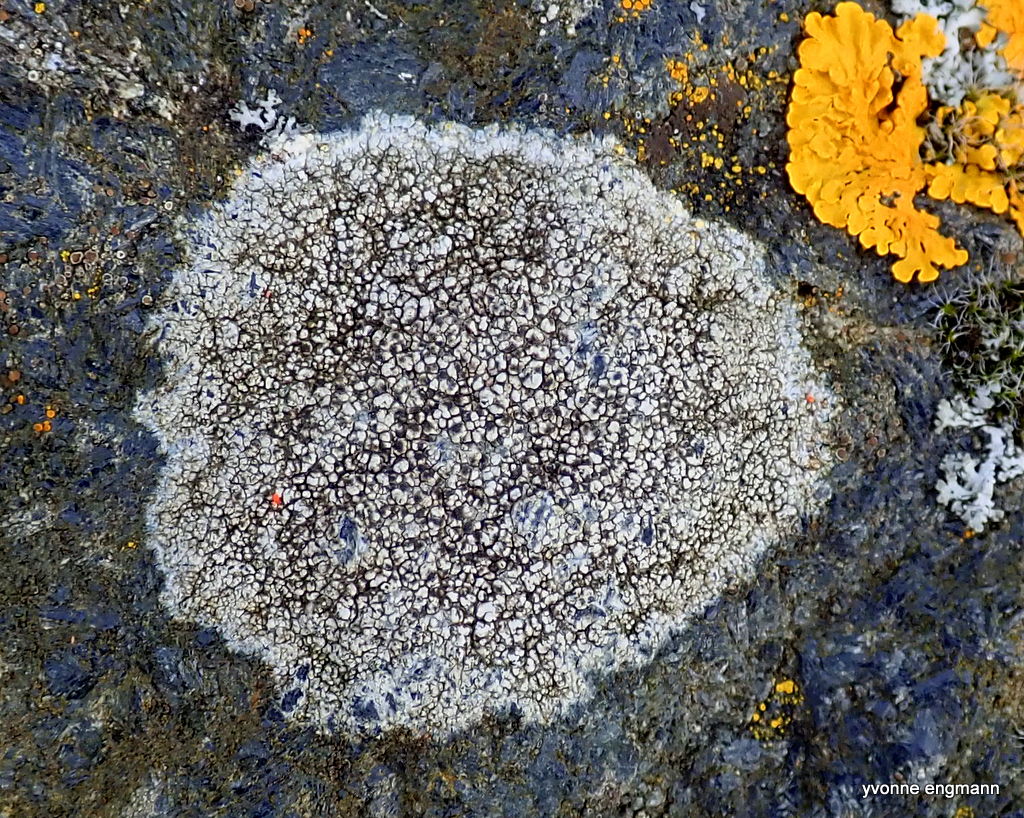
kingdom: Fungi
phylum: Ascomycota
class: Lecanoromycetes
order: Lecanorales
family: Parmeliaceae
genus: Lichen
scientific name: Lichen
